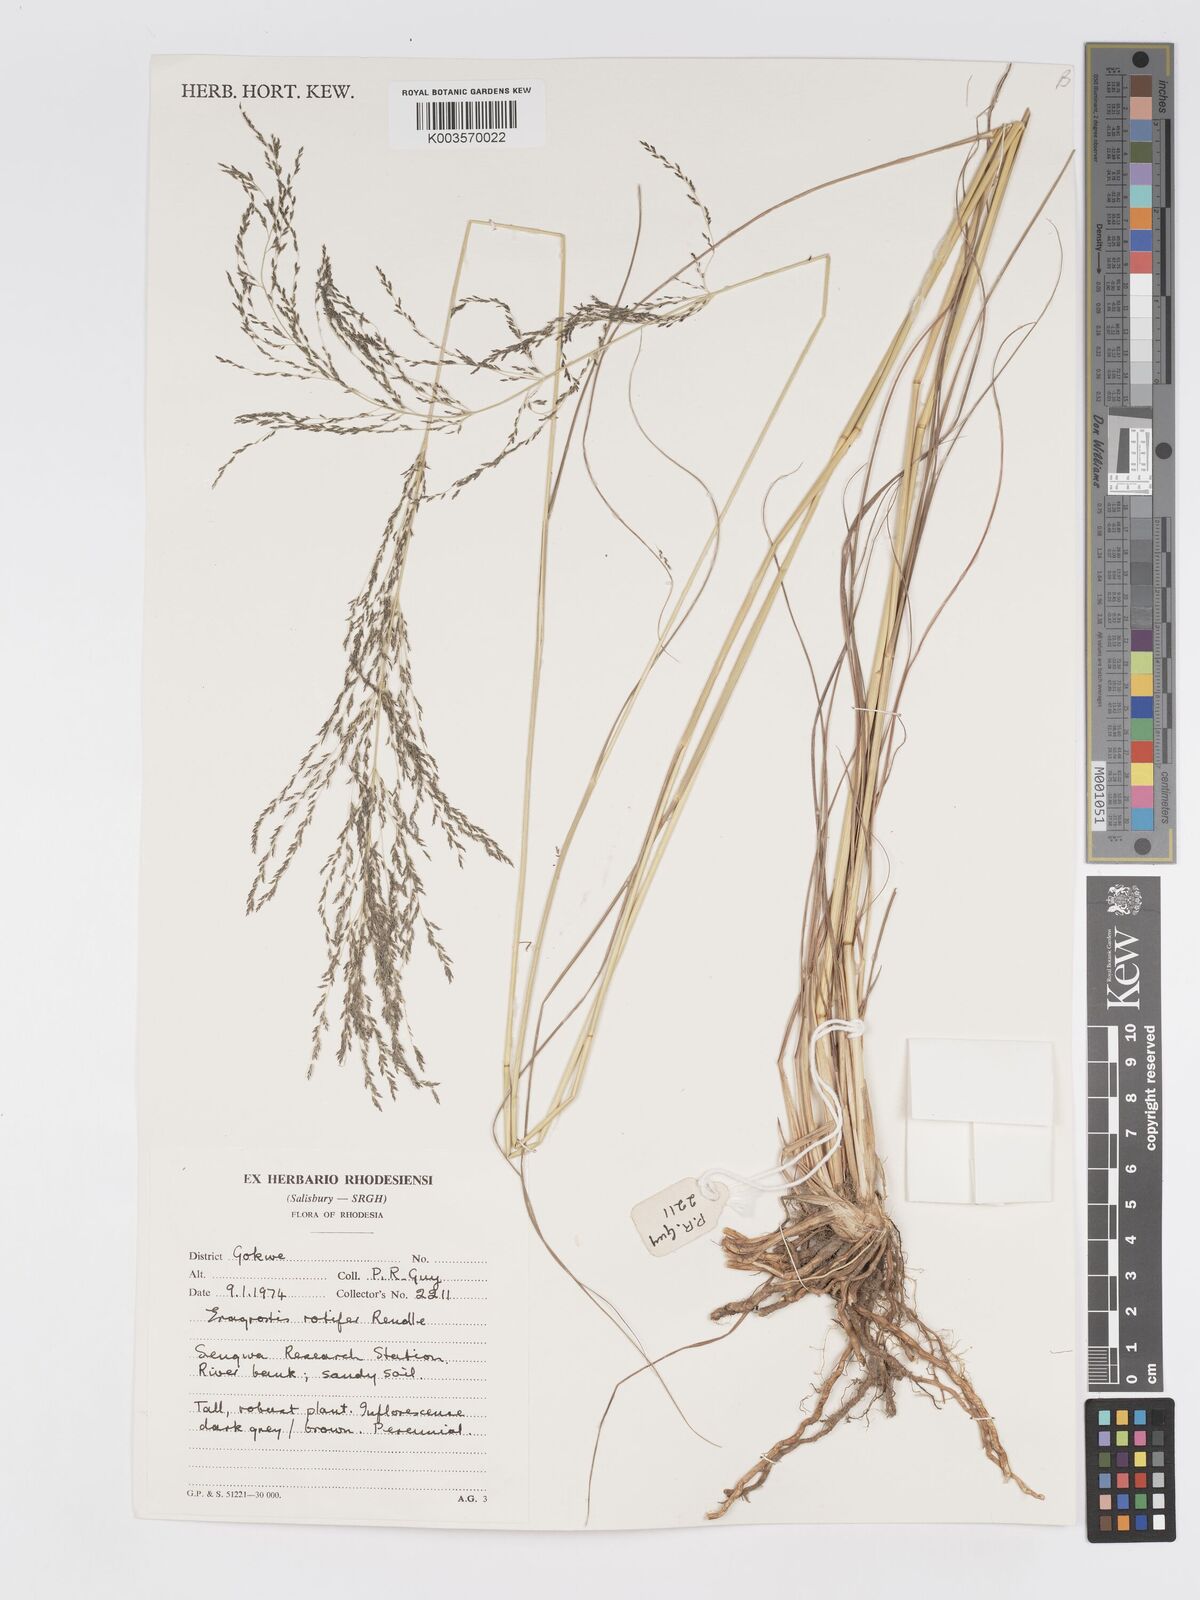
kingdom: Plantae
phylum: Tracheophyta
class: Liliopsida
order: Poales
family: Poaceae
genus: Eragrostis
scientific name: Eragrostis rotifer
